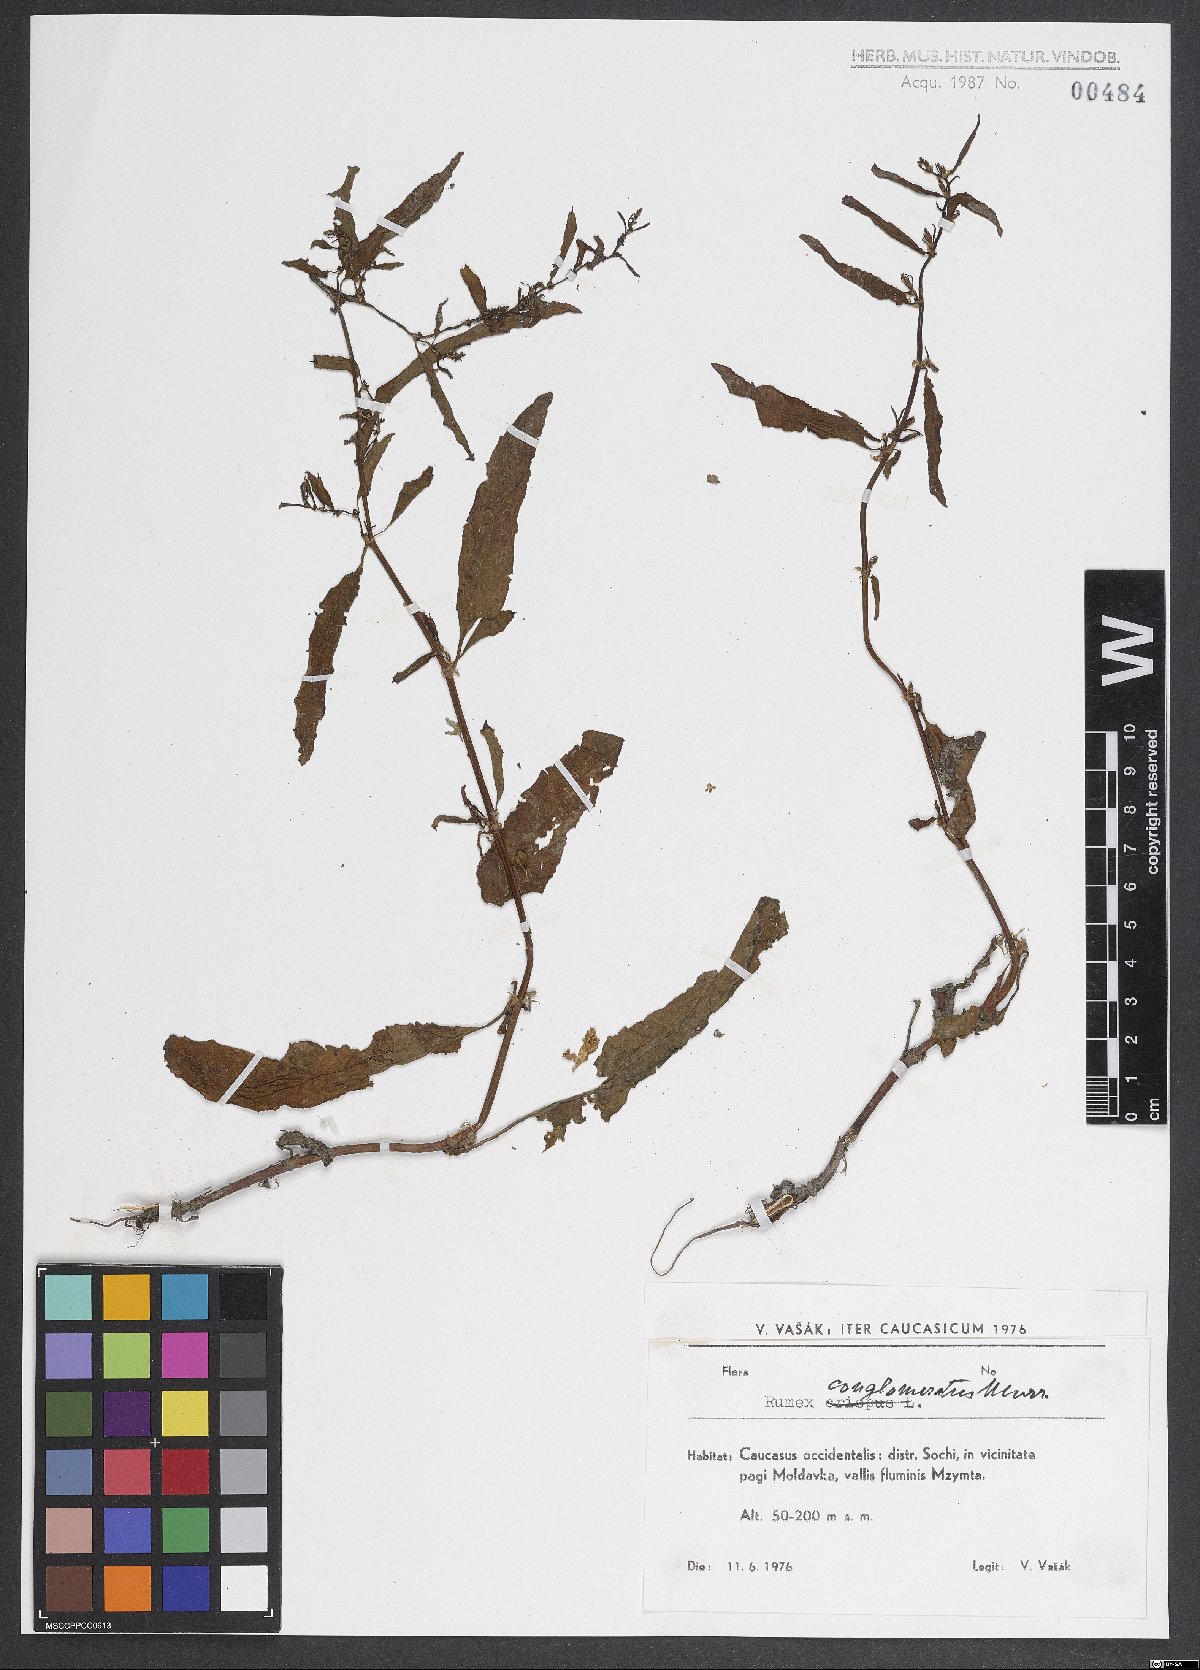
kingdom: Plantae
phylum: Tracheophyta
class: Magnoliopsida
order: Caryophyllales
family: Polygonaceae
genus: Rumex
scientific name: Rumex conglomeratus
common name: Clustered dock
